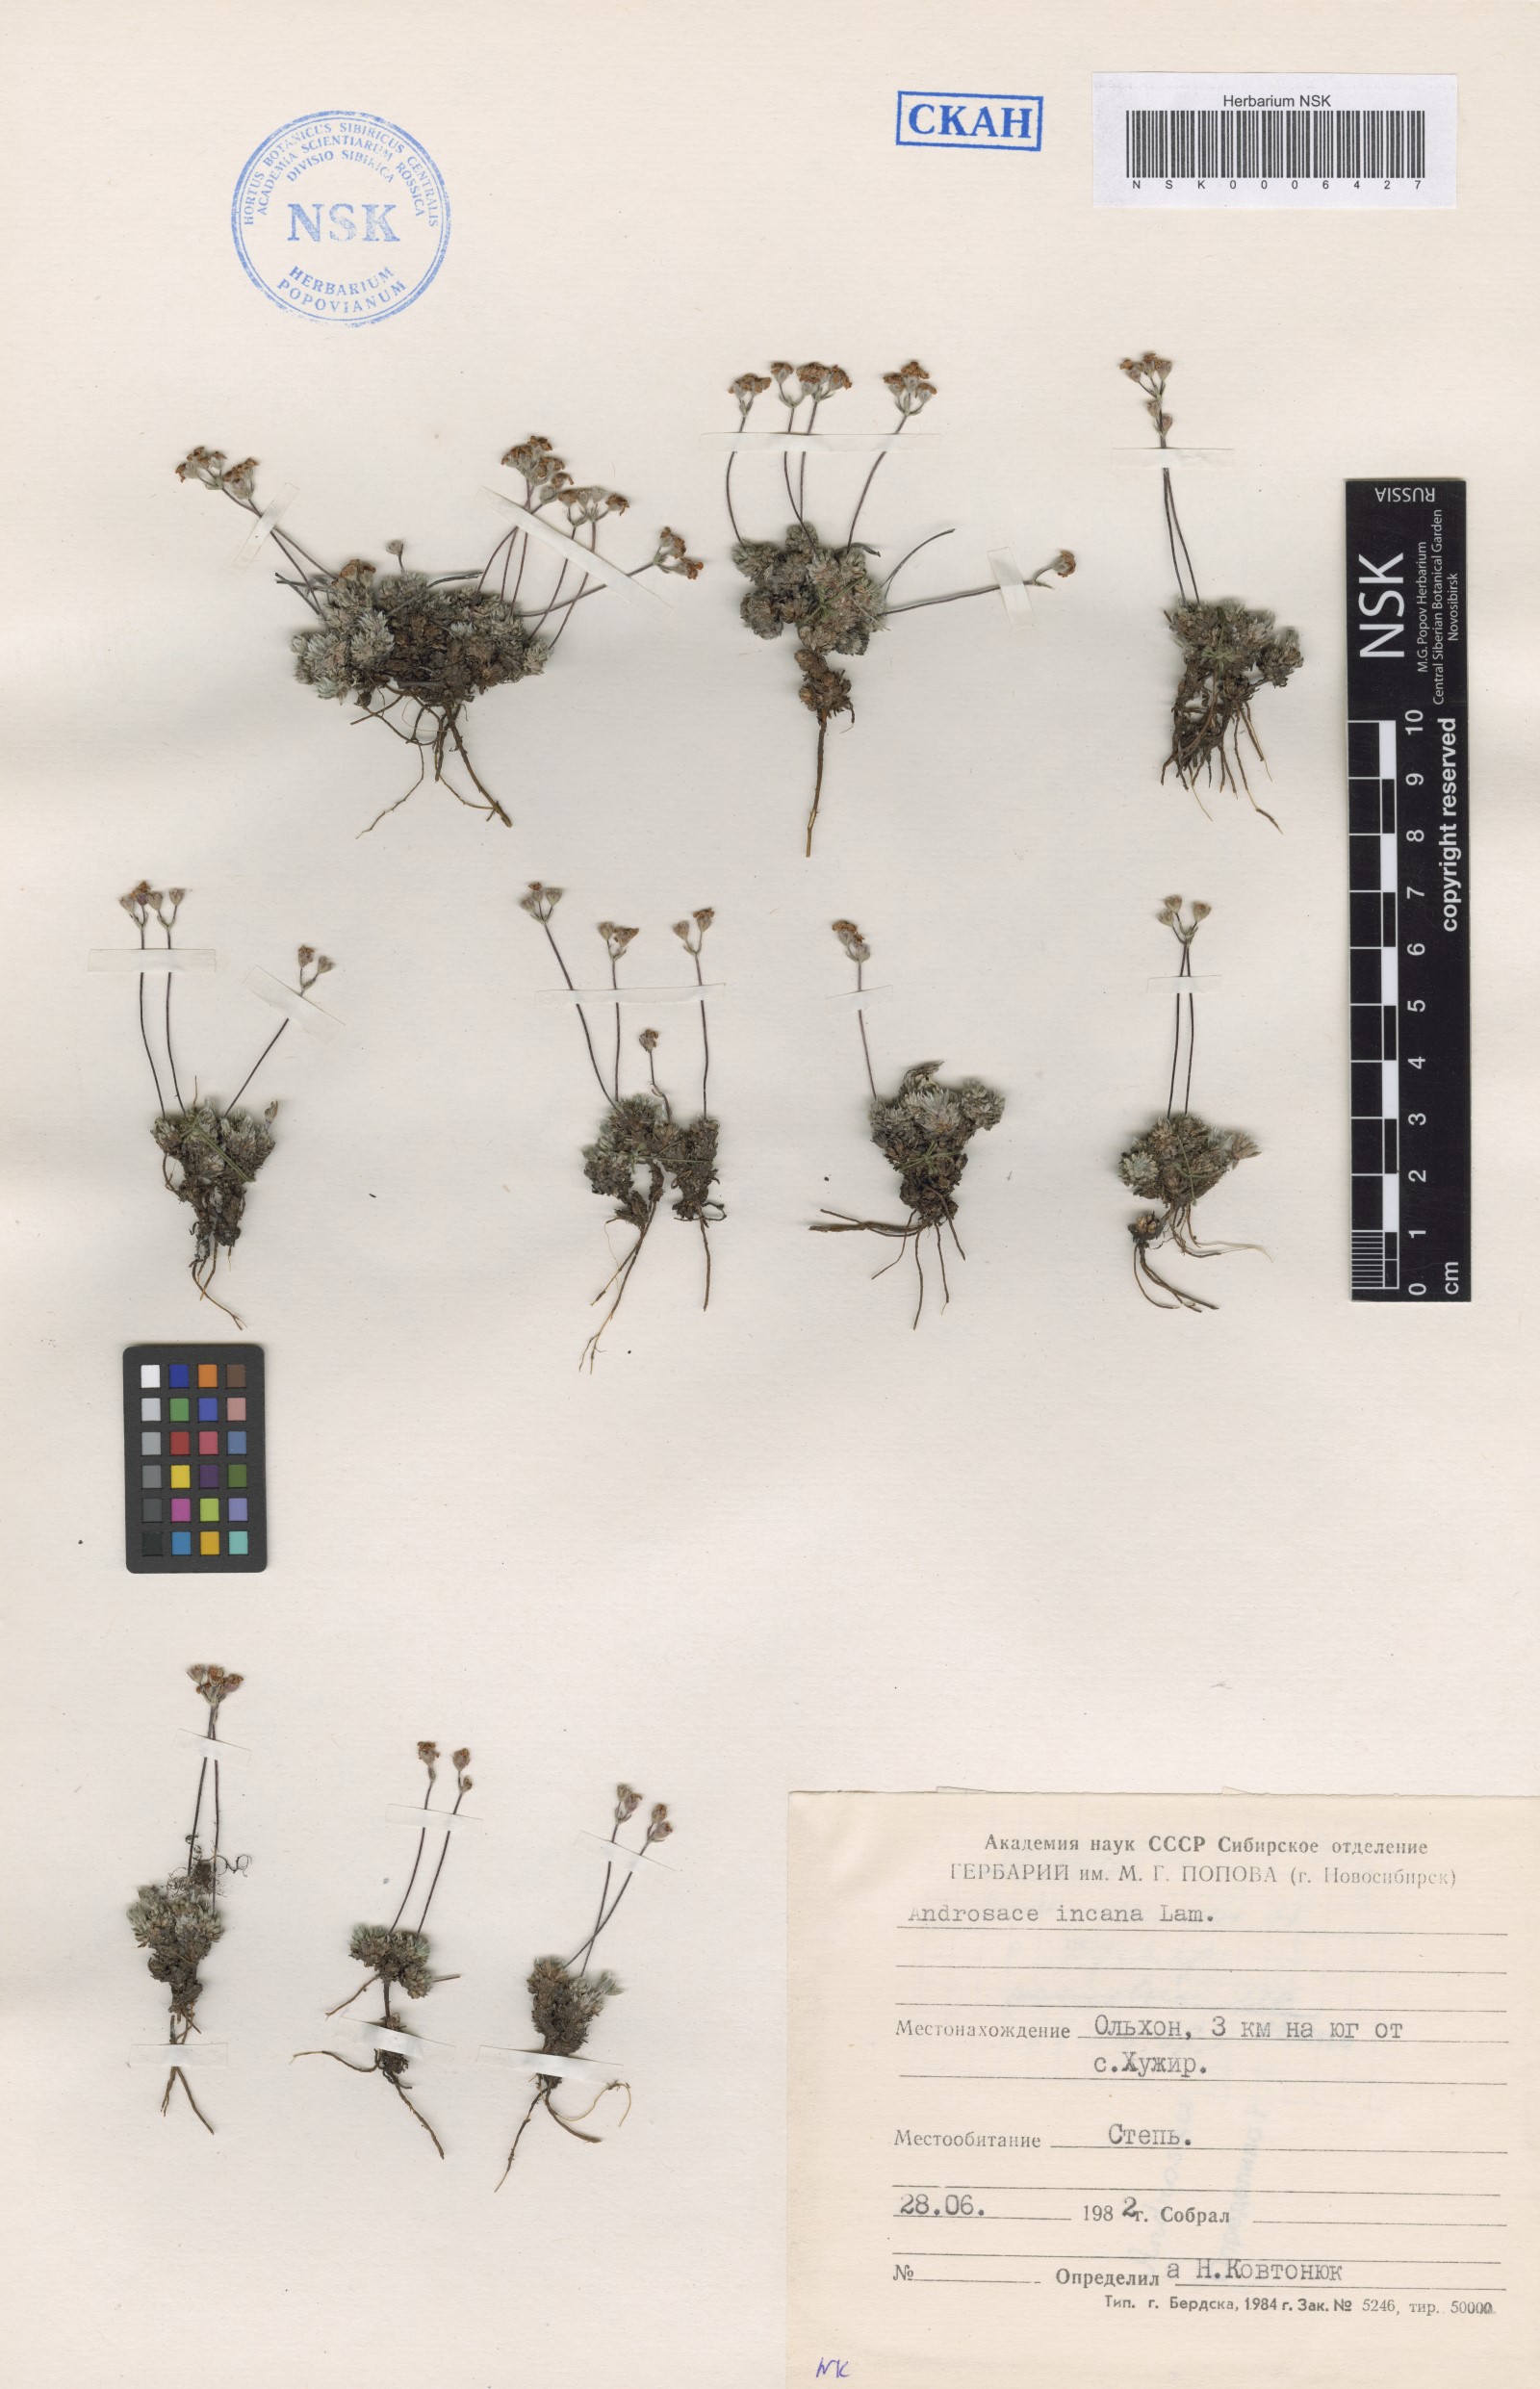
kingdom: Plantae
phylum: Tracheophyta
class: Magnoliopsida
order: Ericales
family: Primulaceae
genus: Androsace
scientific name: Androsace incana
